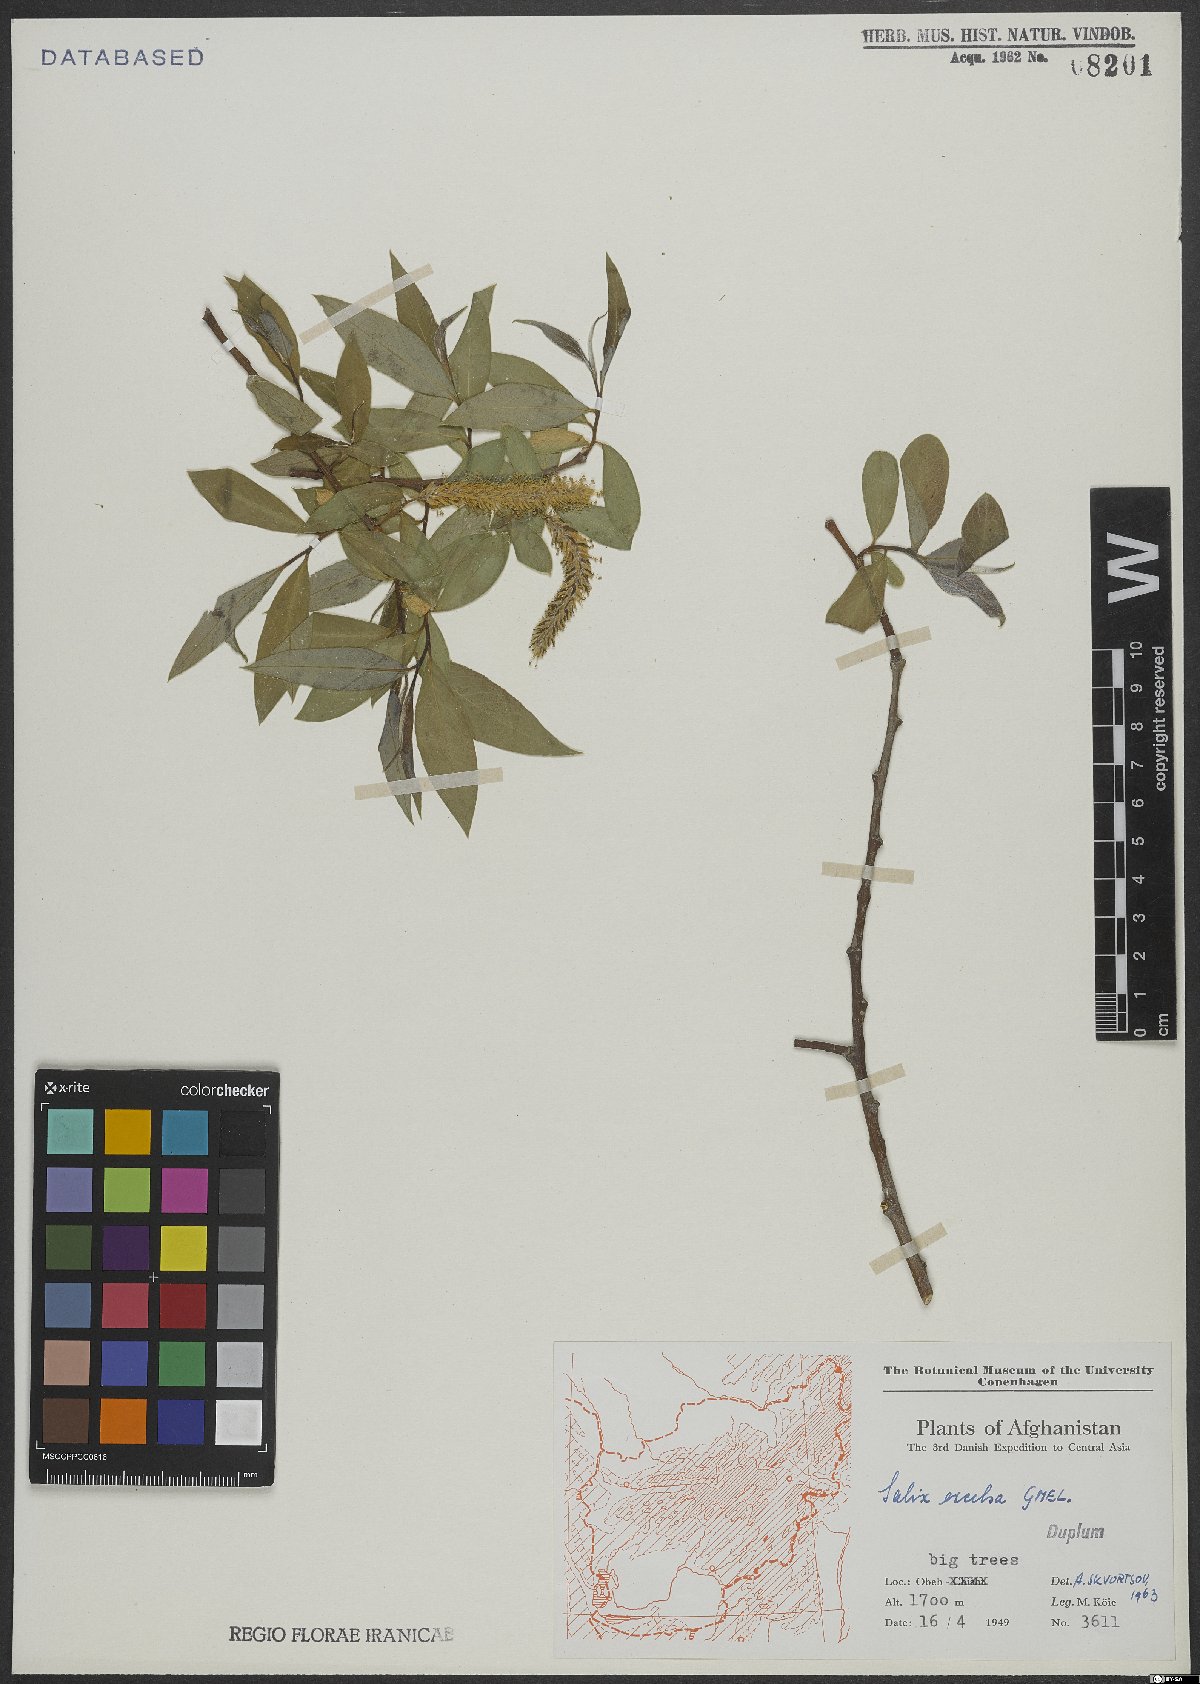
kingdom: Plantae
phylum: Tracheophyta
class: Magnoliopsida
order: Malpighiales
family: Salicaceae
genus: Salix
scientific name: Salix excelsa
